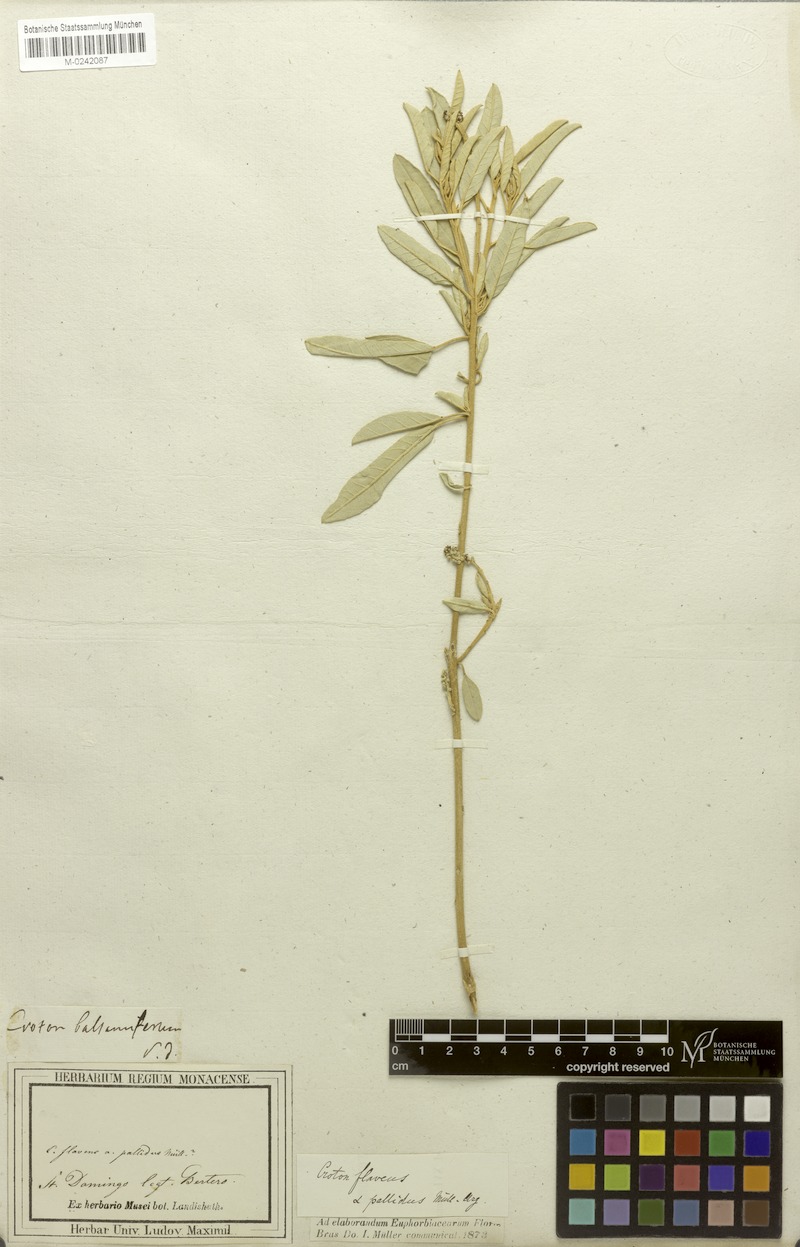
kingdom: Plantae
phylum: Tracheophyta
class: Magnoliopsida
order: Malpighiales
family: Euphorbiaceae
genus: Croton
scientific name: Croton flavens
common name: Yellow balsam
